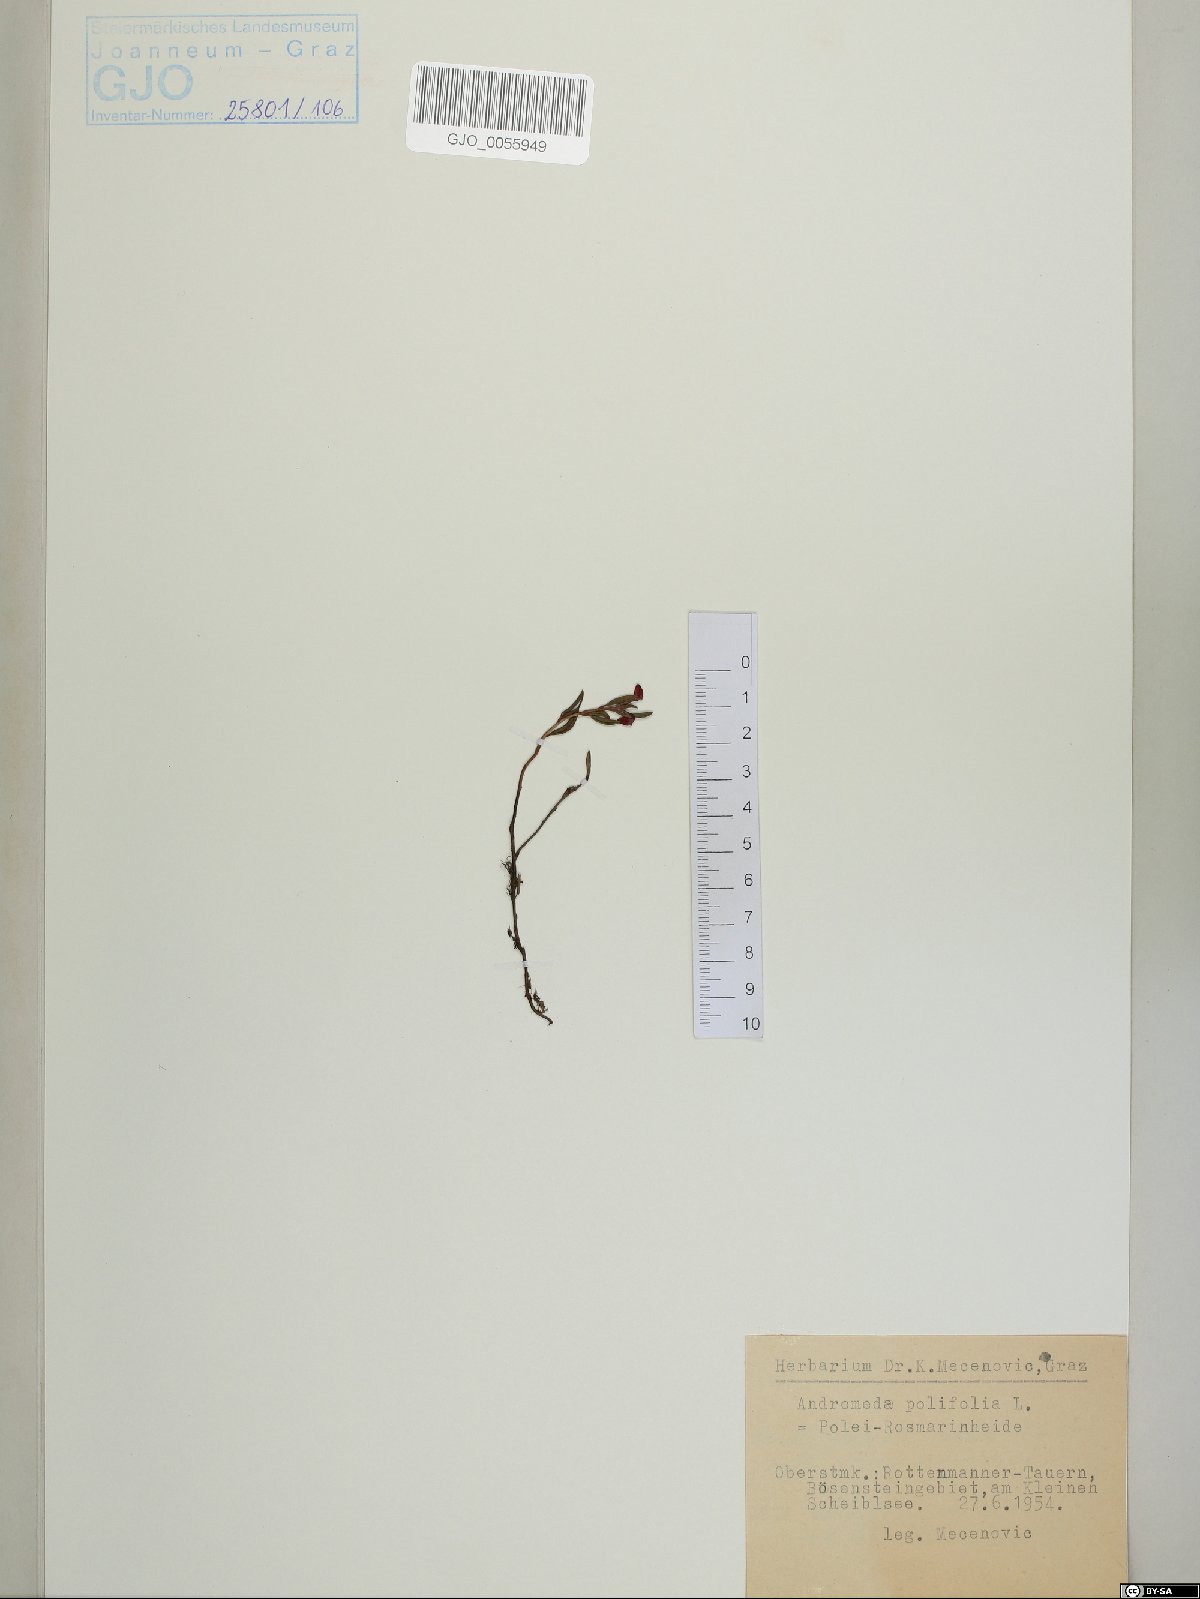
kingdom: Plantae
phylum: Tracheophyta
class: Magnoliopsida
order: Ericales
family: Ericaceae
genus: Andromeda
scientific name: Andromeda polifolia
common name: Bog-rosemary
